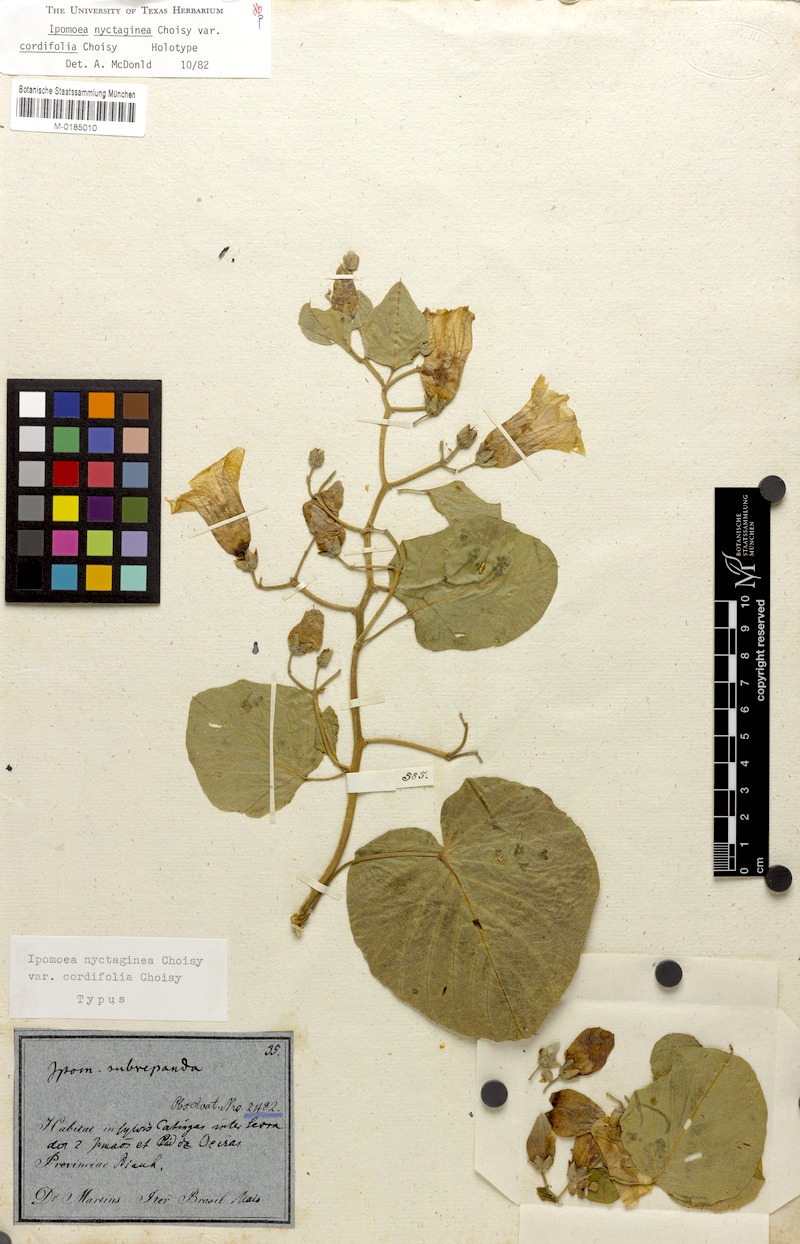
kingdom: Plantae
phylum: Tracheophyta
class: Magnoliopsida
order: Solanales
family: Convolvulaceae
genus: Ipomoea
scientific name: Ipomoea megapotamica
